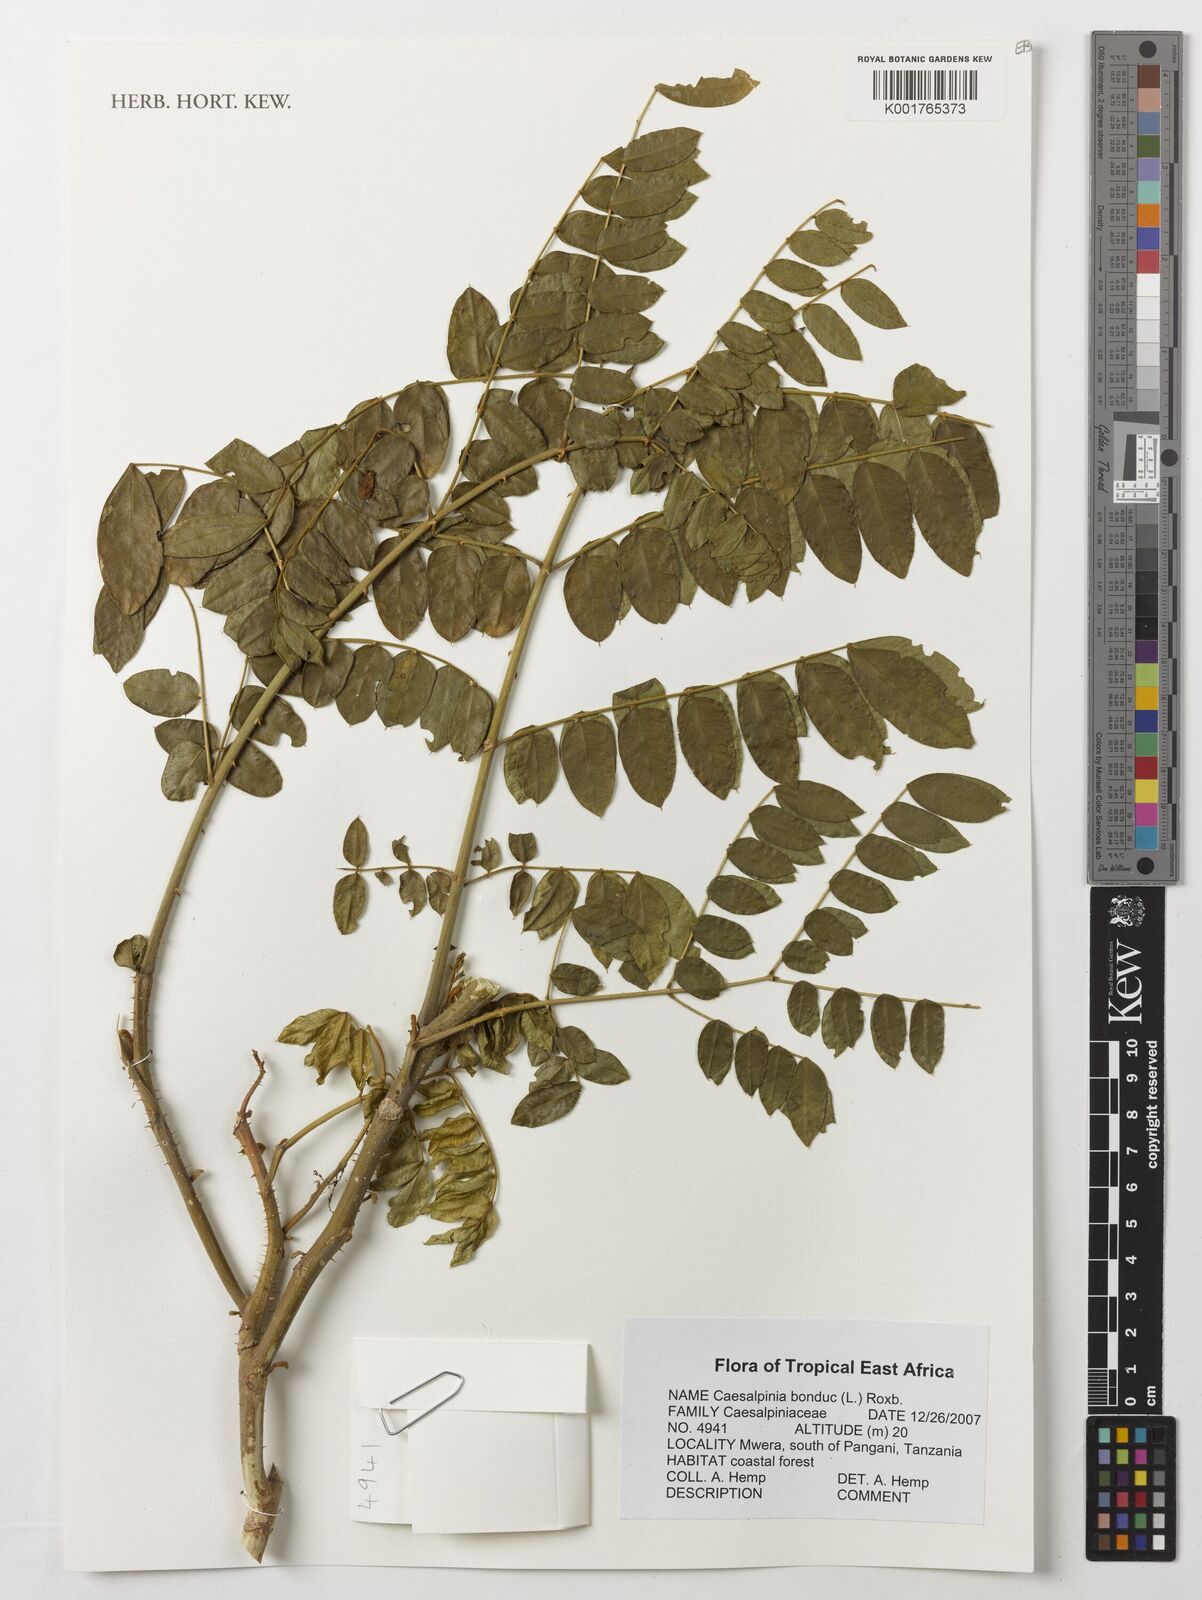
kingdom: Plantae
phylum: Tracheophyta
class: Magnoliopsida
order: Fabales
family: Fabaceae
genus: Guilandina
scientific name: Guilandina bonduc
